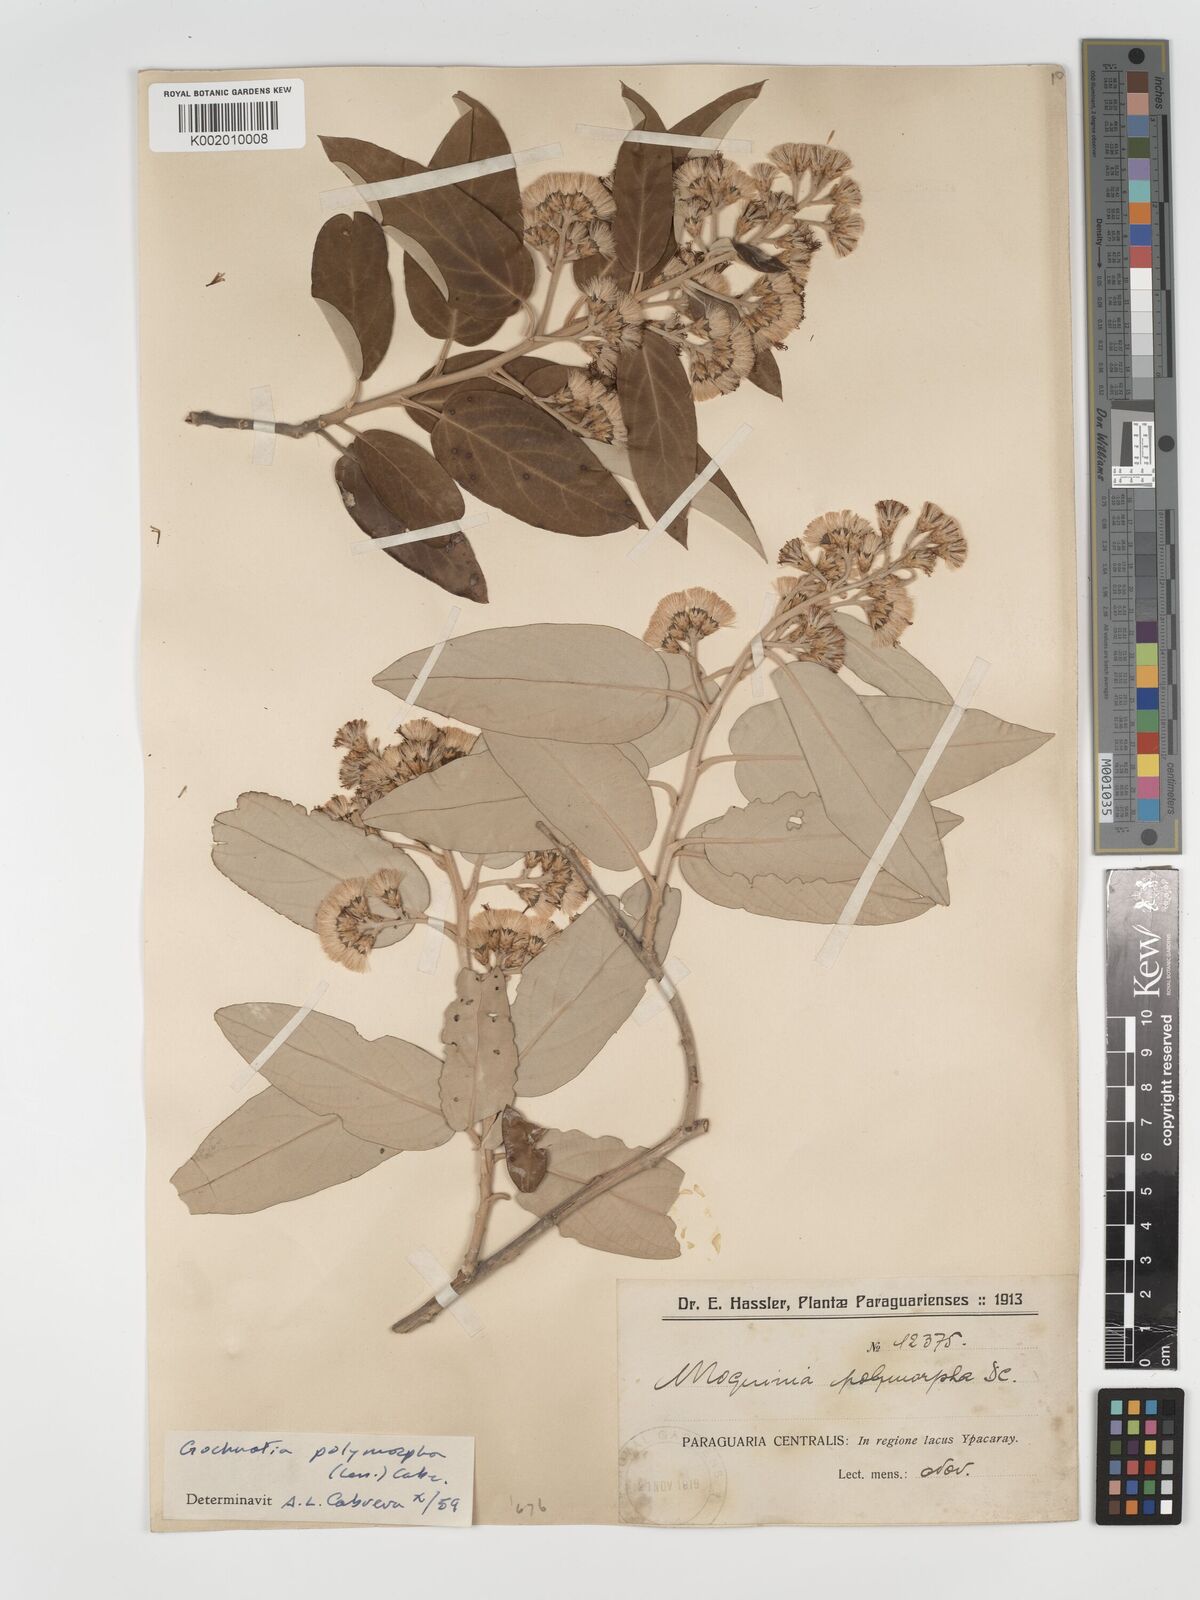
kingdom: Plantae
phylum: Tracheophyta
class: Magnoliopsida
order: Asterales
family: Asteraceae
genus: Moquiniastrum
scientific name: Moquiniastrum polymorphum
